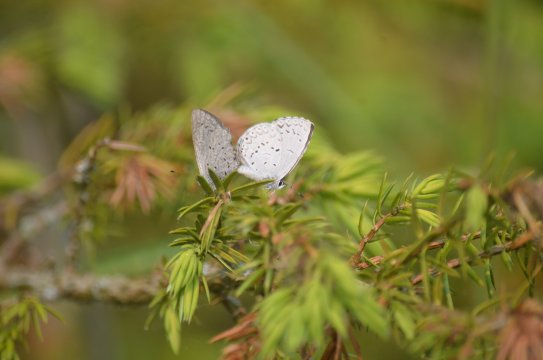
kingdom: Animalia
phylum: Arthropoda
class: Insecta
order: Lepidoptera
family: Lycaenidae
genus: Celastrina
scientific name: Celastrina lucia
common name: Northern Spring Azure
